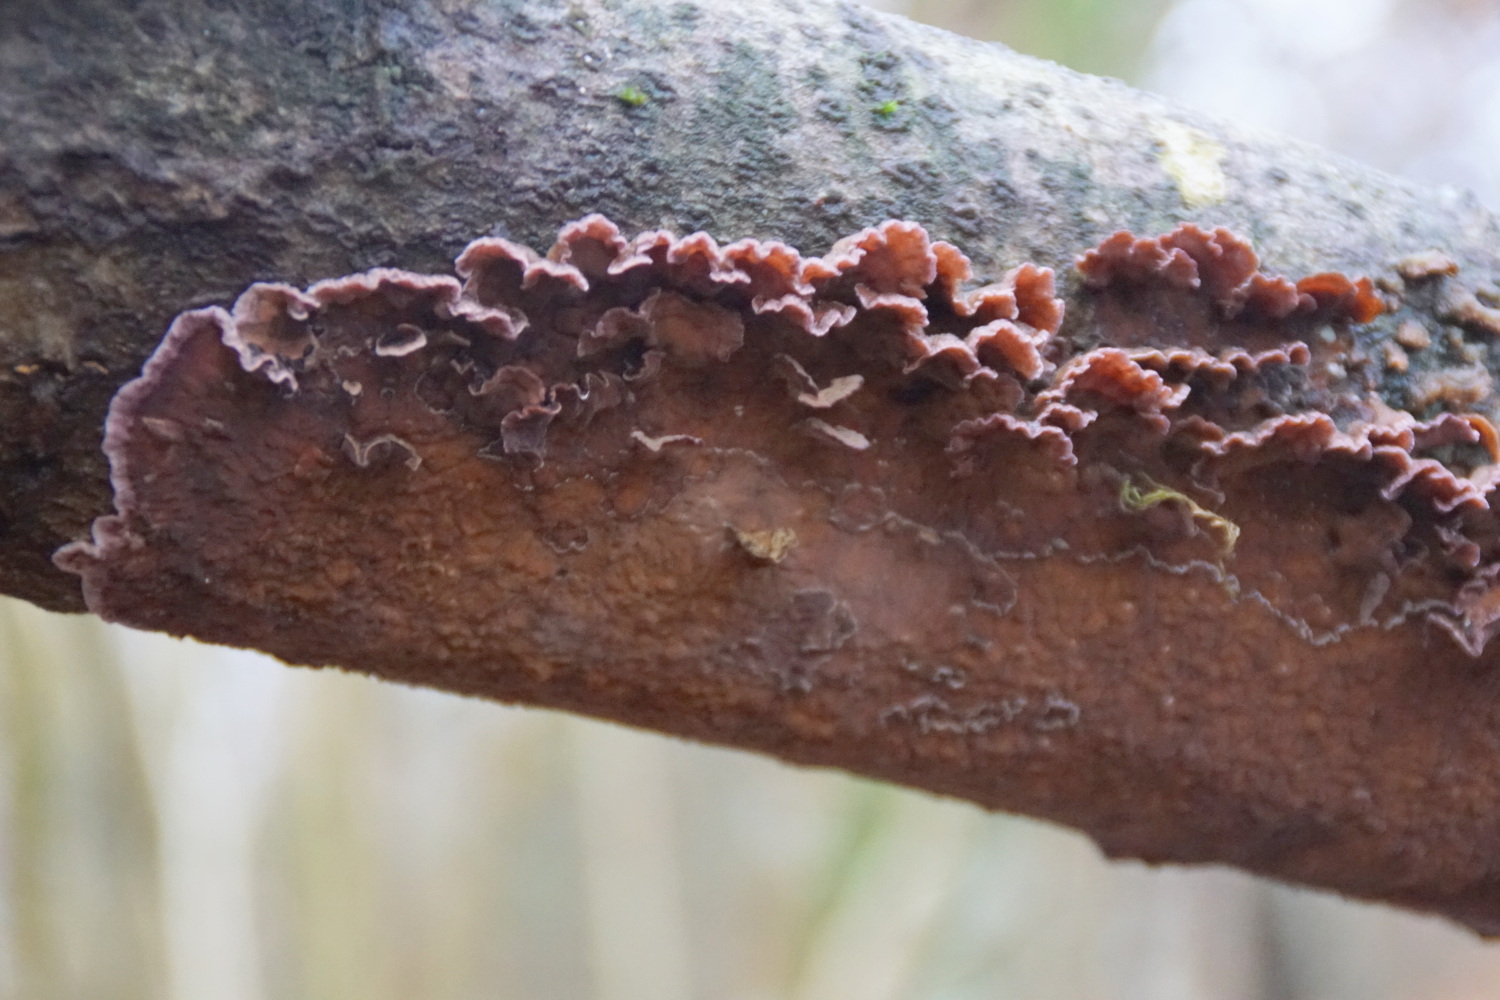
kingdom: Fungi
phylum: Basidiomycota
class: Agaricomycetes
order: Agaricales
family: Cyphellaceae
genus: Chondrostereum
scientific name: Chondrostereum purpureum
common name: purpurlædersvamp
